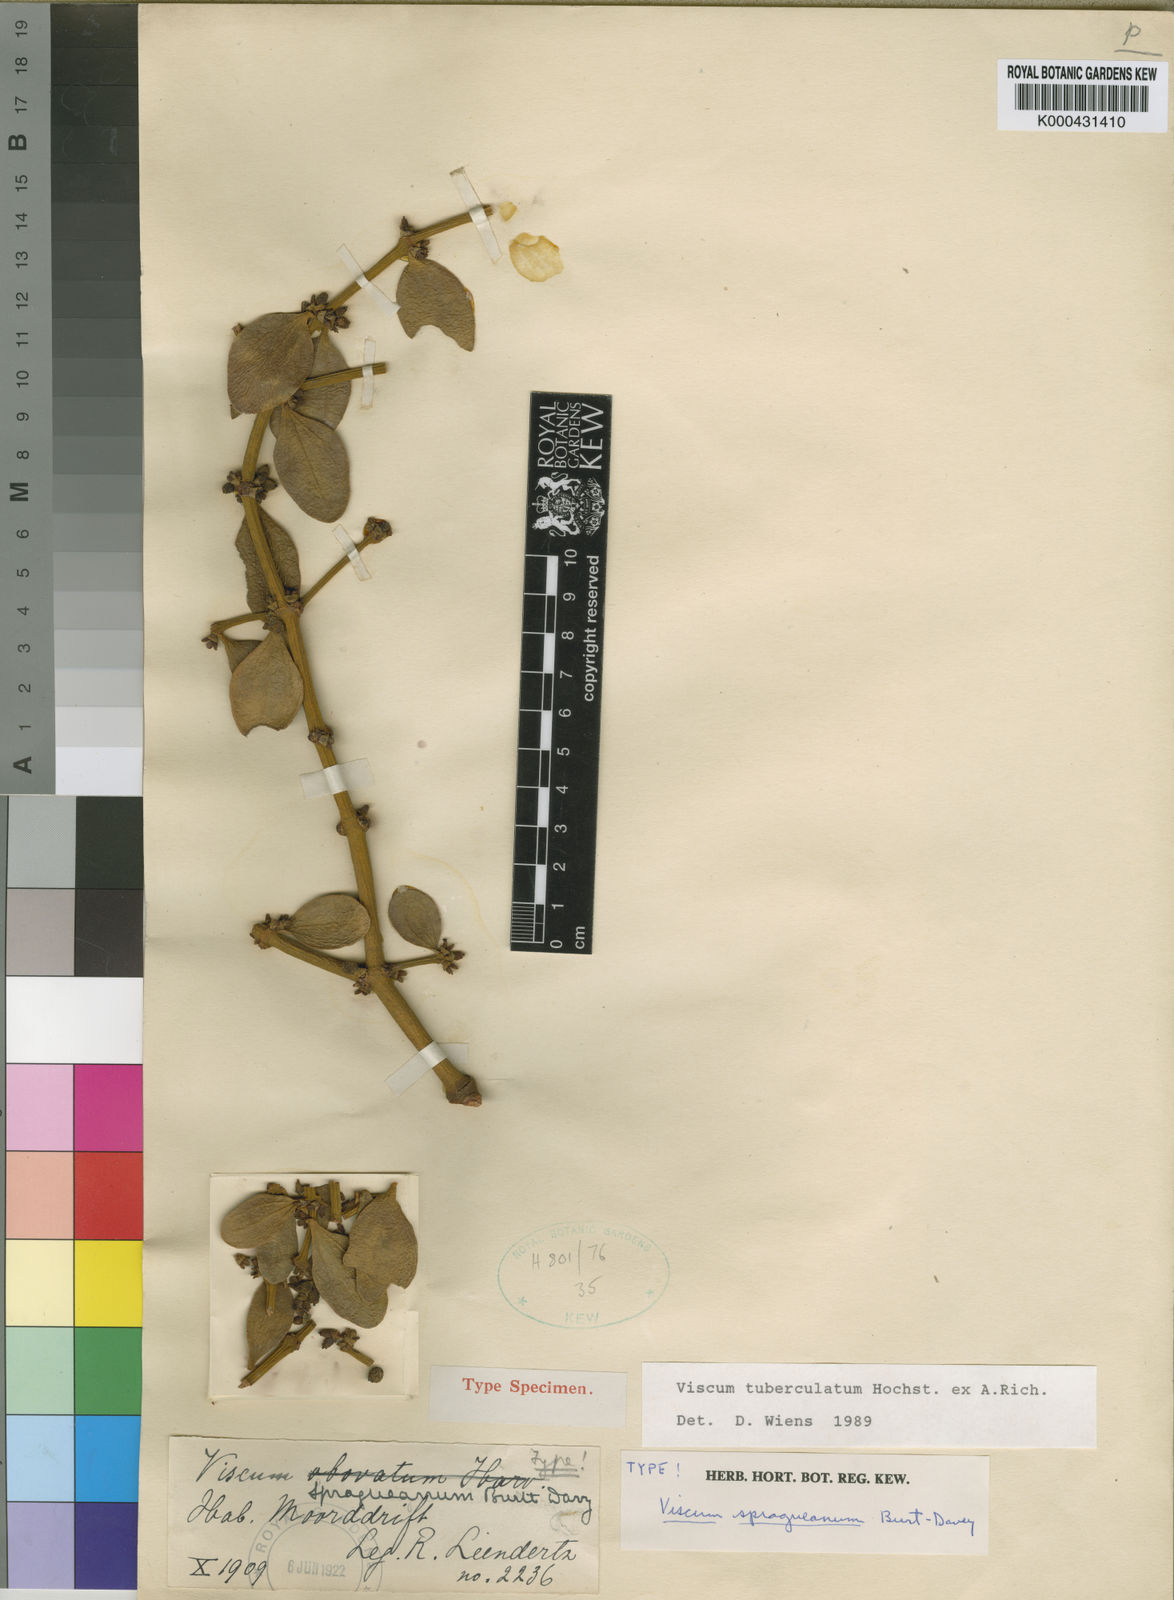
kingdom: Plantae
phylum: Tracheophyta
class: Magnoliopsida
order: Santalales
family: Viscaceae
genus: Viscum
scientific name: Viscum tuberculatum
